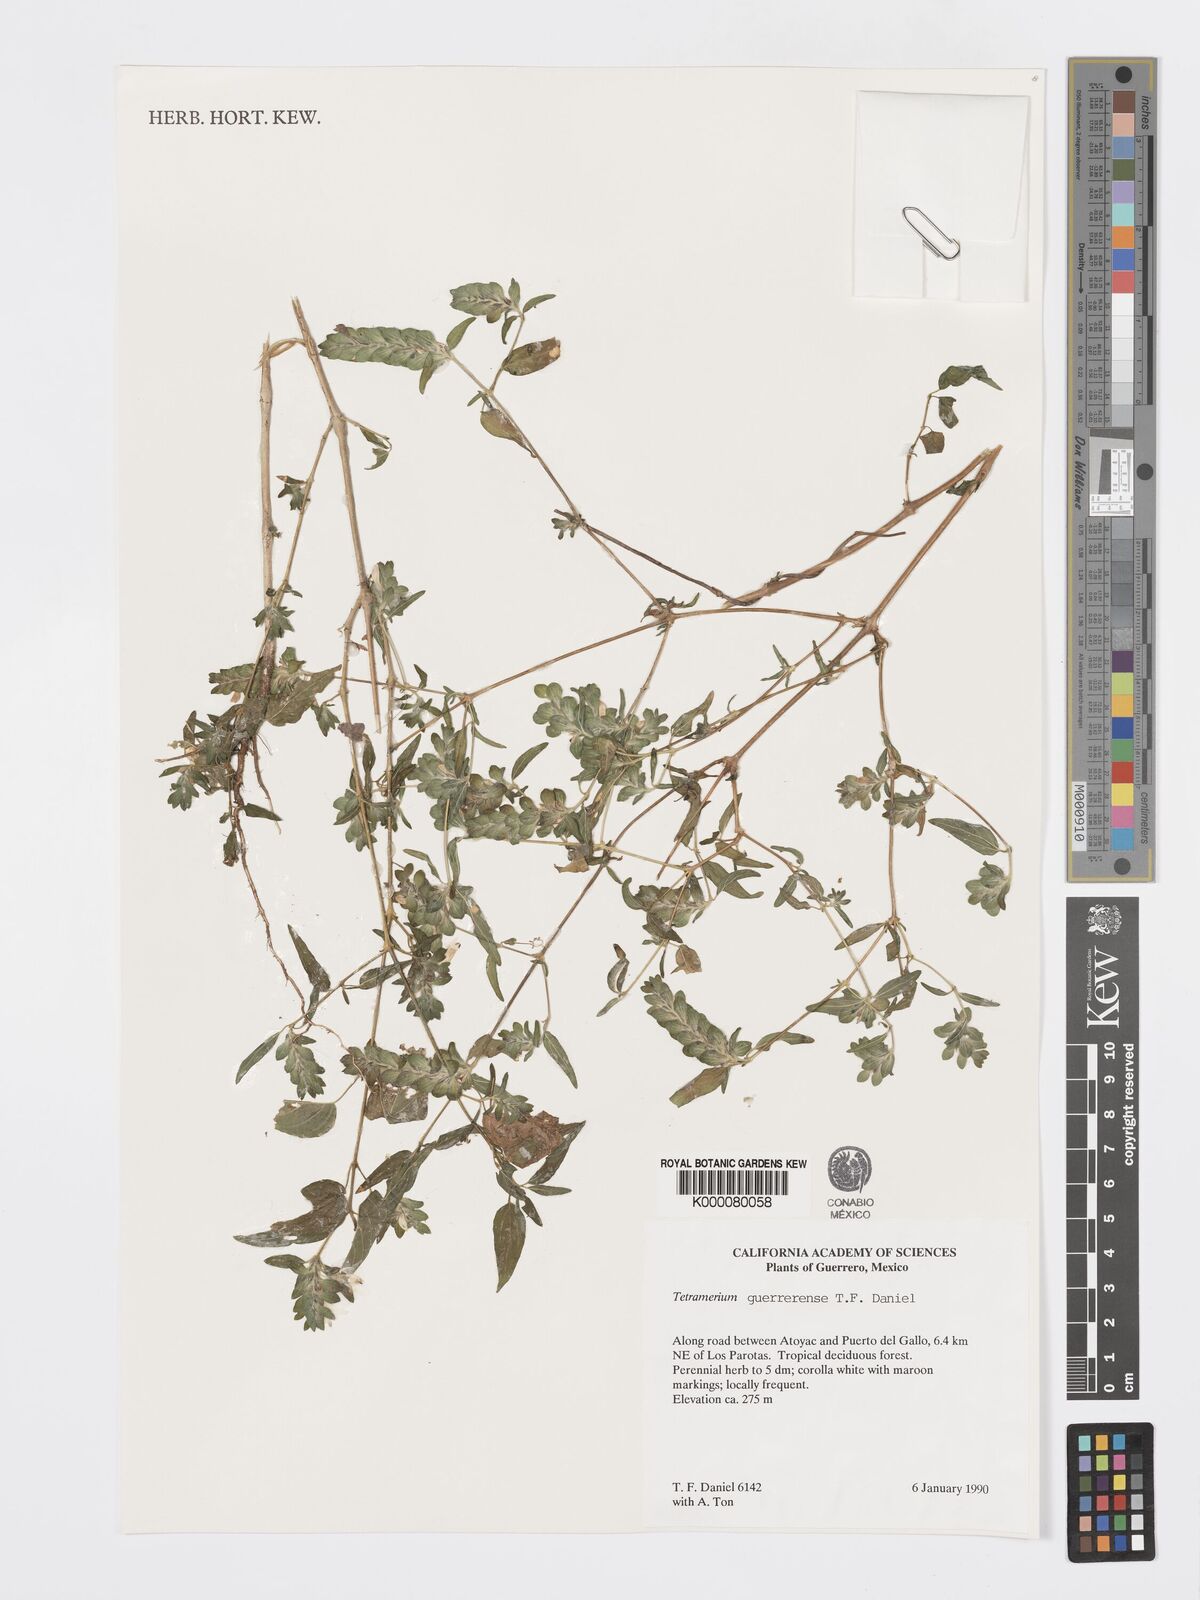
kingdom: Plantae
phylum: Tracheophyta
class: Magnoliopsida
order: Lamiales
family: Acanthaceae
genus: Tetramerium
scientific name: Tetramerium guerrerense
